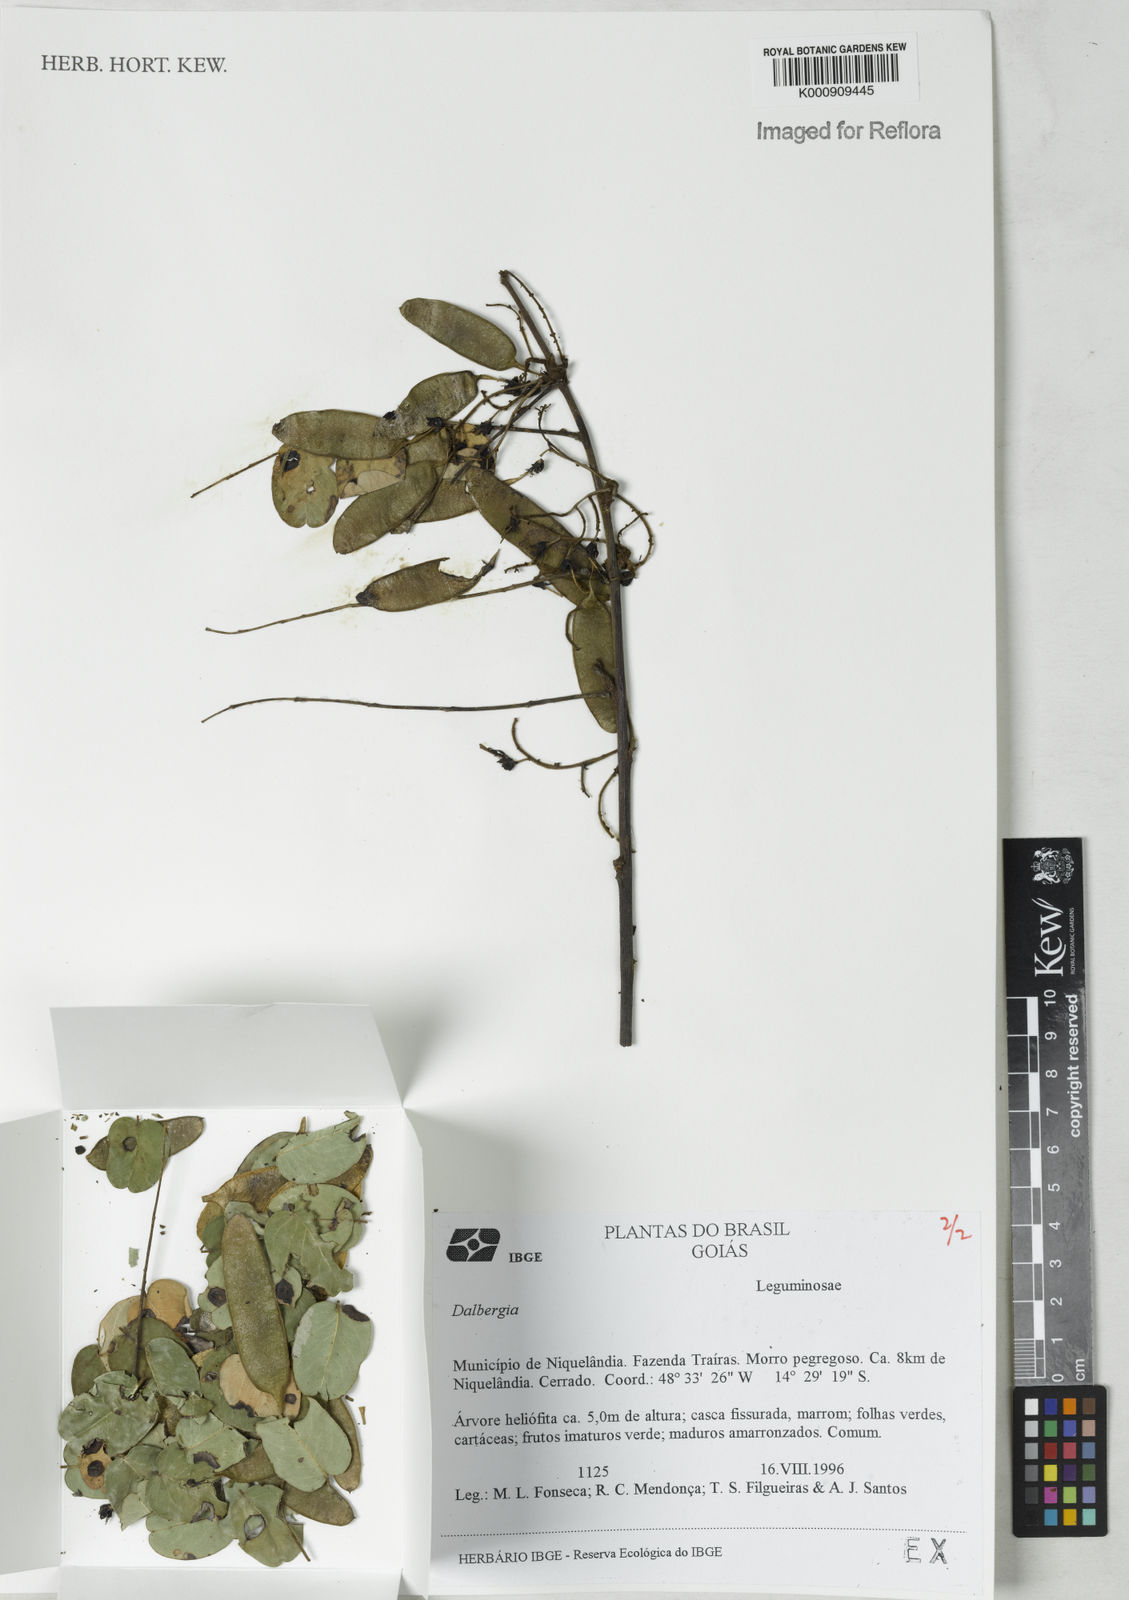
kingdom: Plantae
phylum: Tracheophyta
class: Magnoliopsida
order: Fabales
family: Fabaceae
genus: Dalbergia
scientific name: Dalbergia
